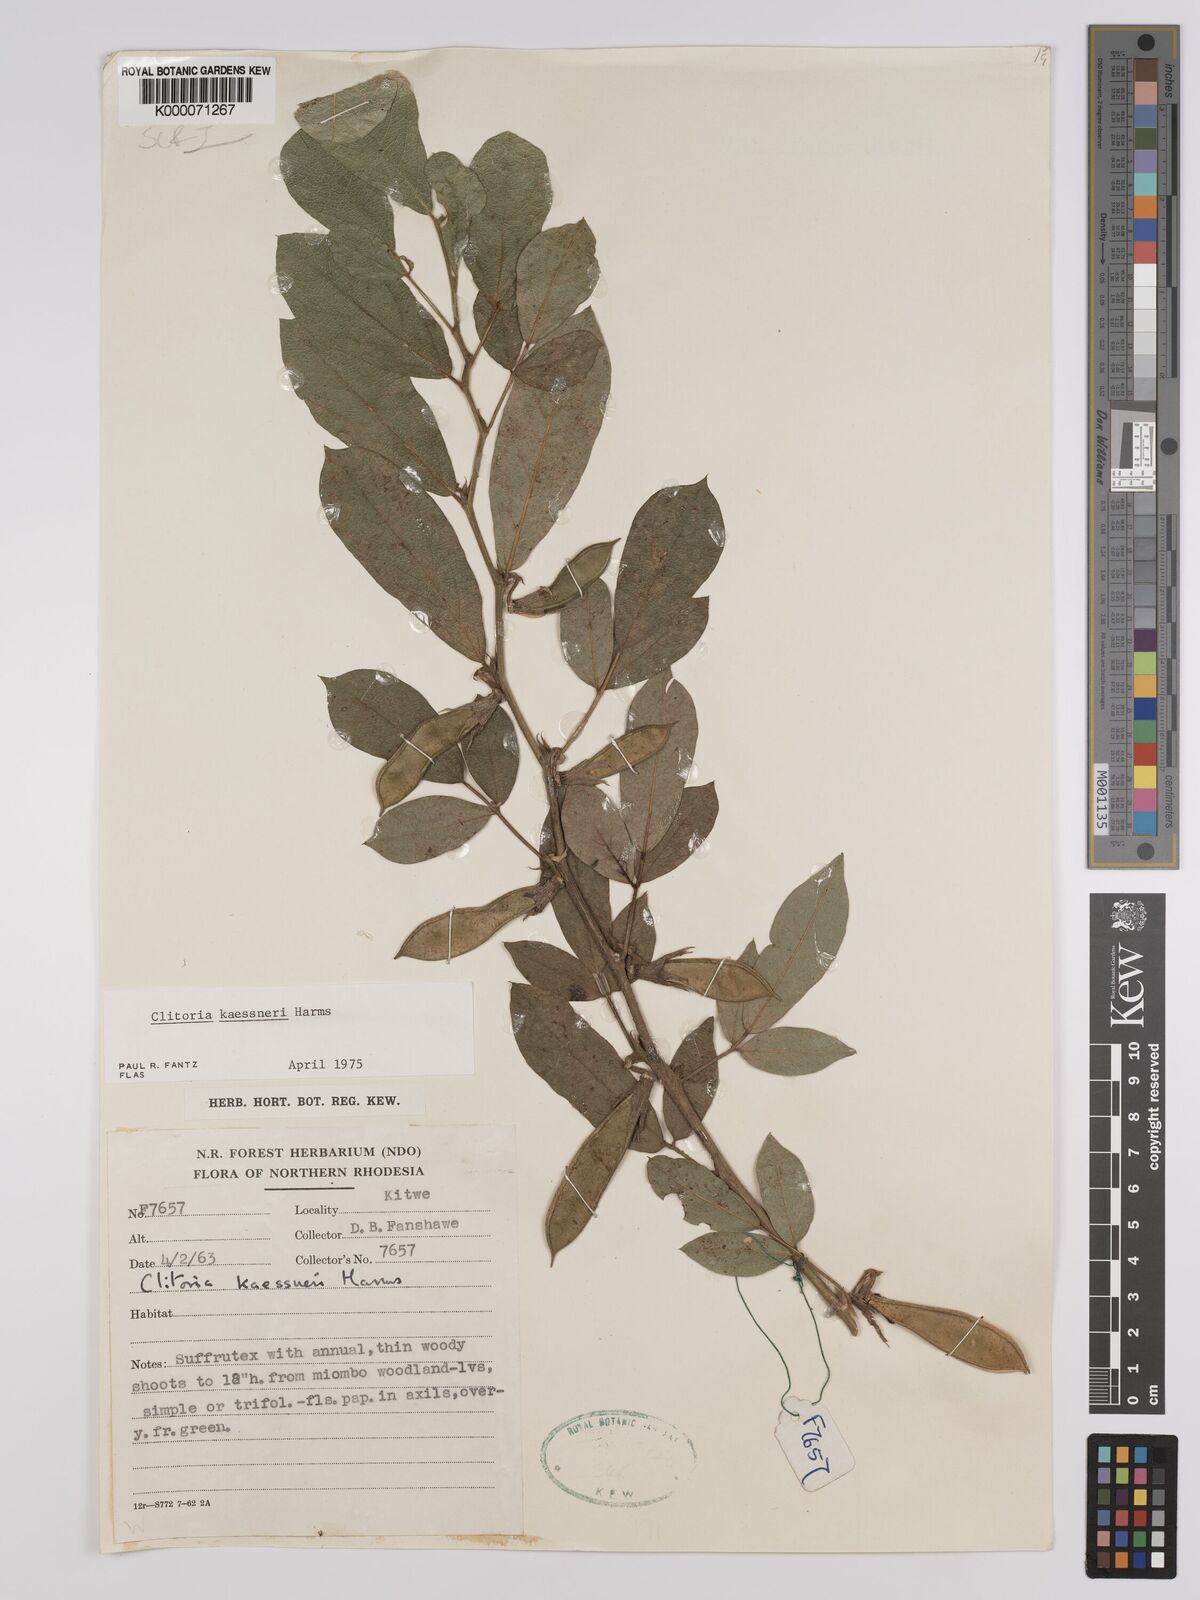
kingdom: Plantae
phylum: Tracheophyta
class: Magnoliopsida
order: Fabales
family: Fabaceae
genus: Clitoria
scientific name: Clitoria kaessneri
